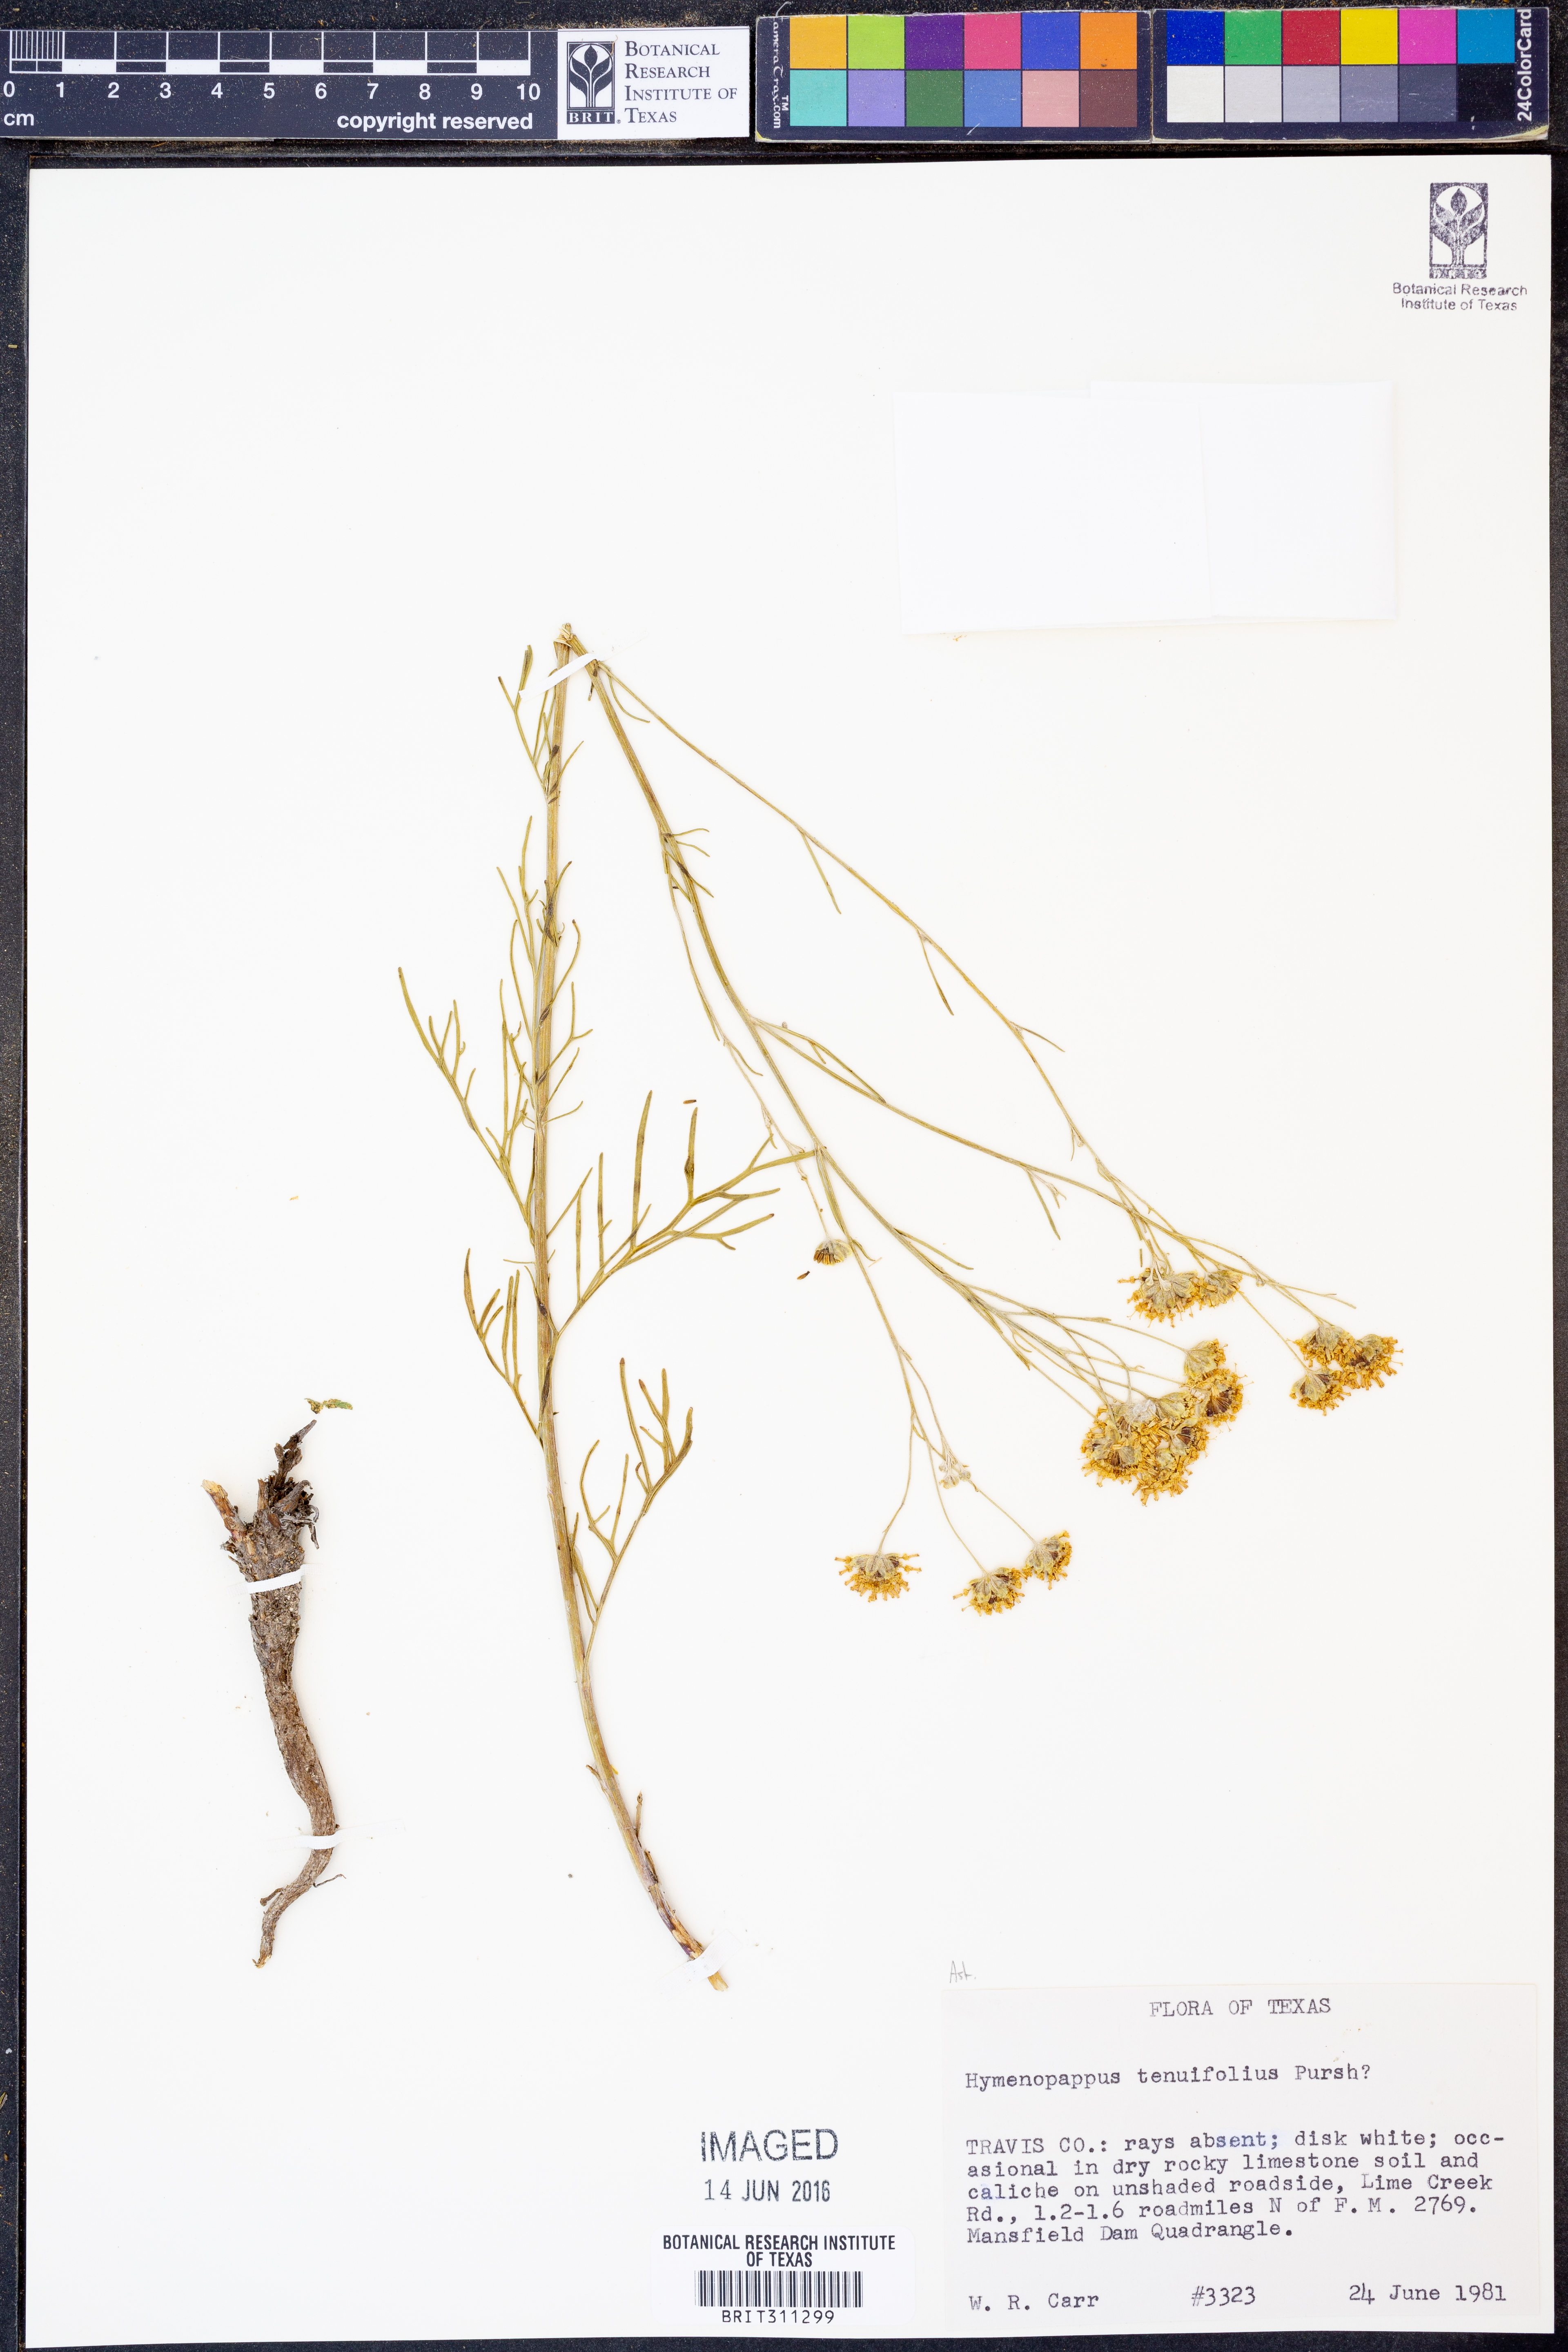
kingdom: Plantae
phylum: Tracheophyta
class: Magnoliopsida
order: Asterales
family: Asteraceae
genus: Hymenopappus
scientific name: Hymenopappus tenuifolius
